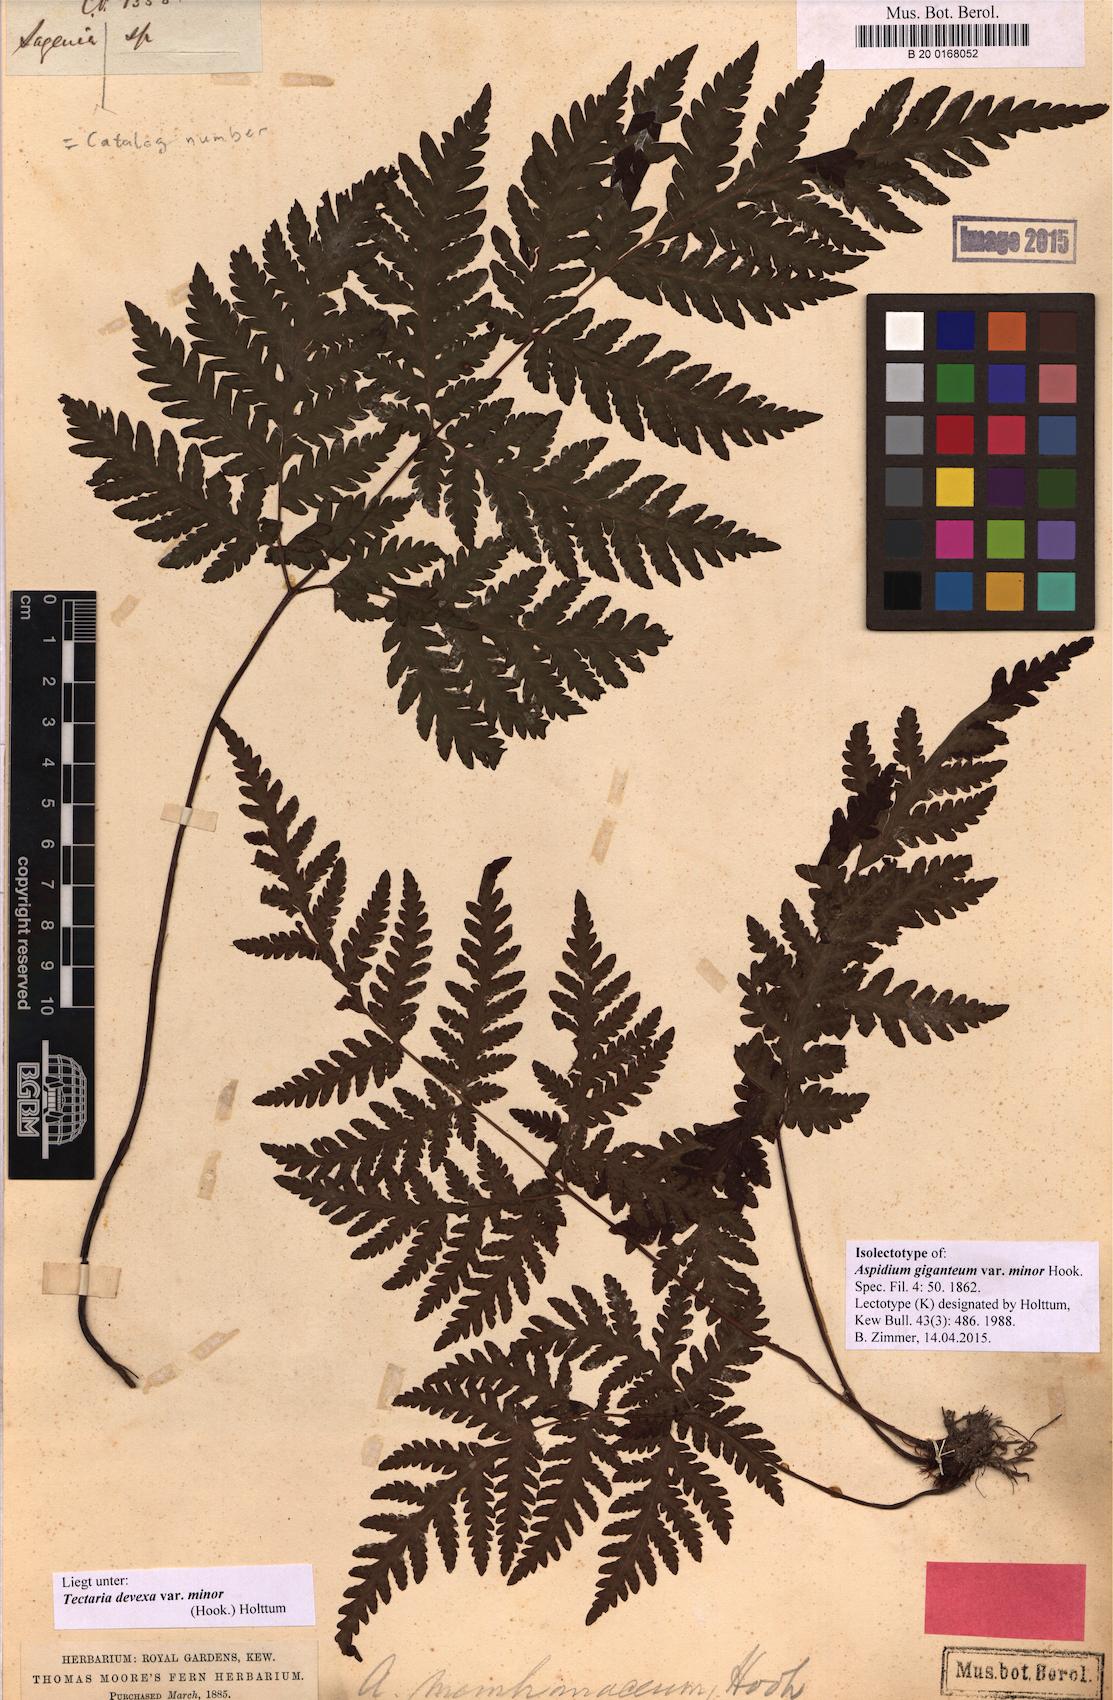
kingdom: Plantae
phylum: Tracheophyta
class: Polypodiopsida
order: Polypodiales
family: Tectariaceae
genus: Tectaria
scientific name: Tectaria membranacea
